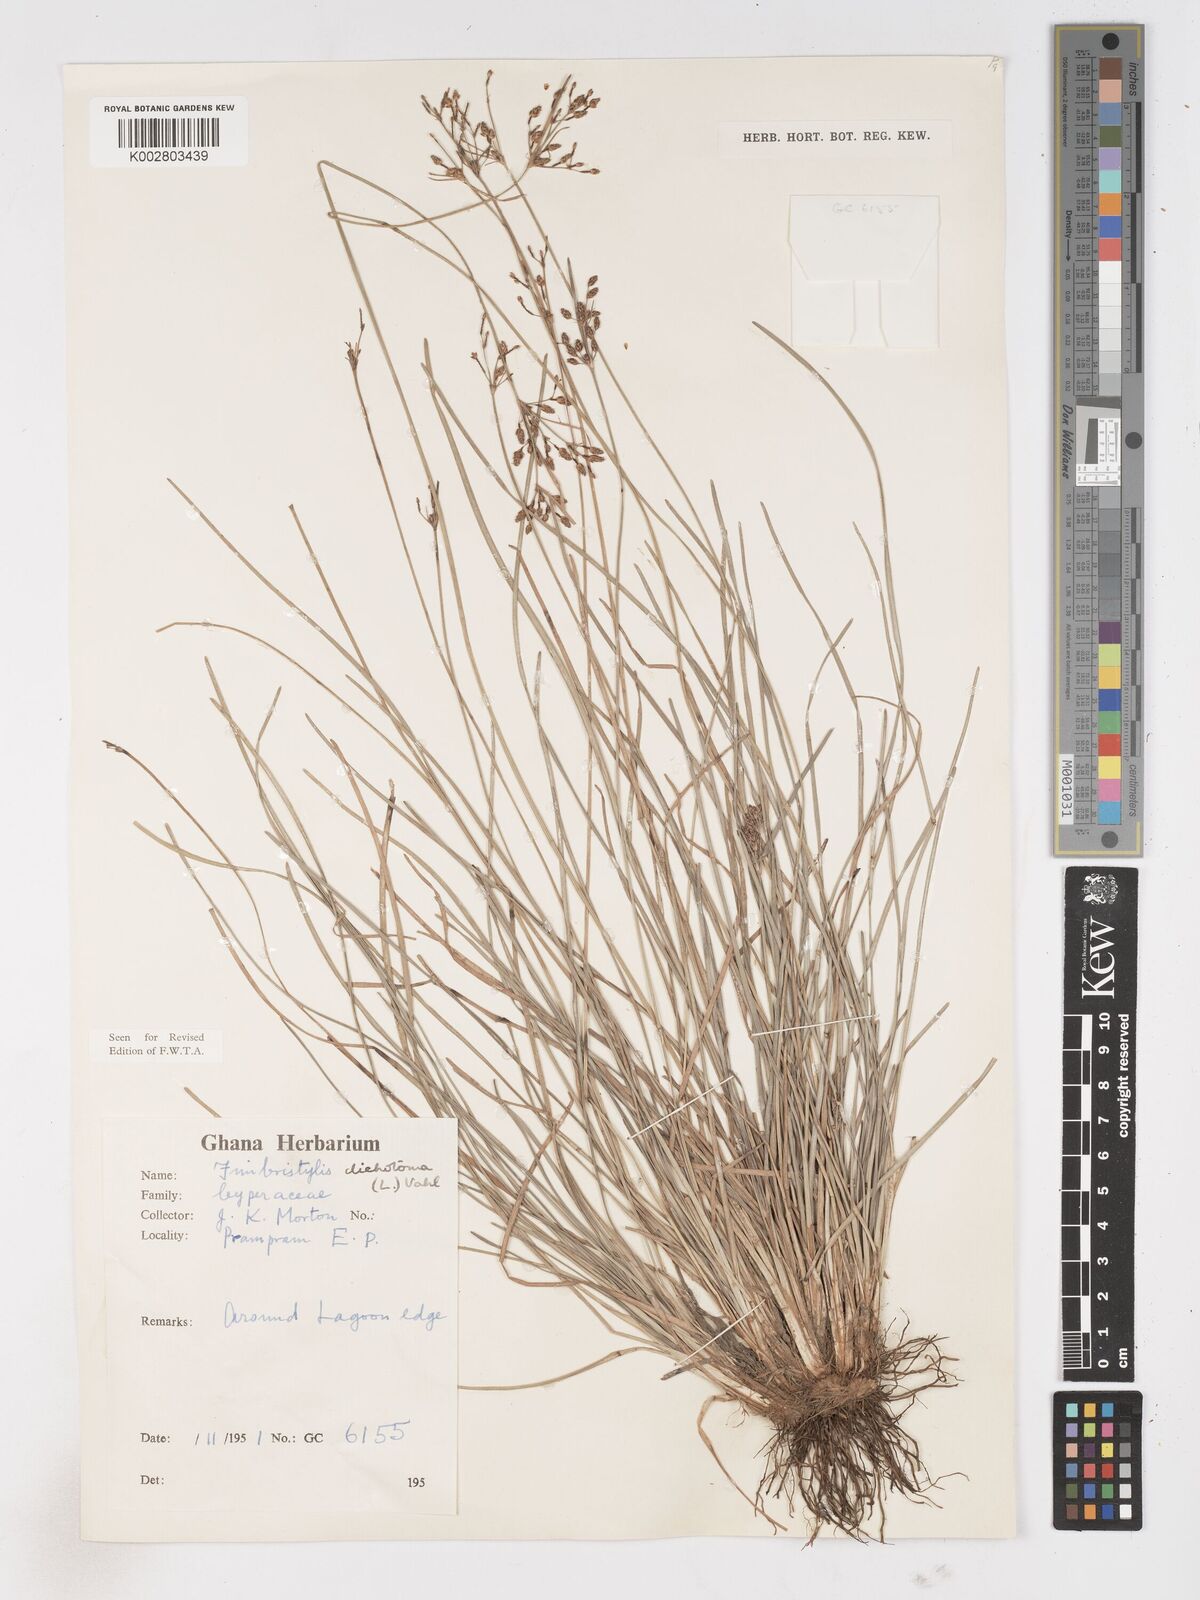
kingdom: Plantae
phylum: Tracheophyta
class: Liliopsida
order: Poales
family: Cyperaceae
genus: Fimbristylis
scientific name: Fimbristylis dichotoma
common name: Forked fimbry
